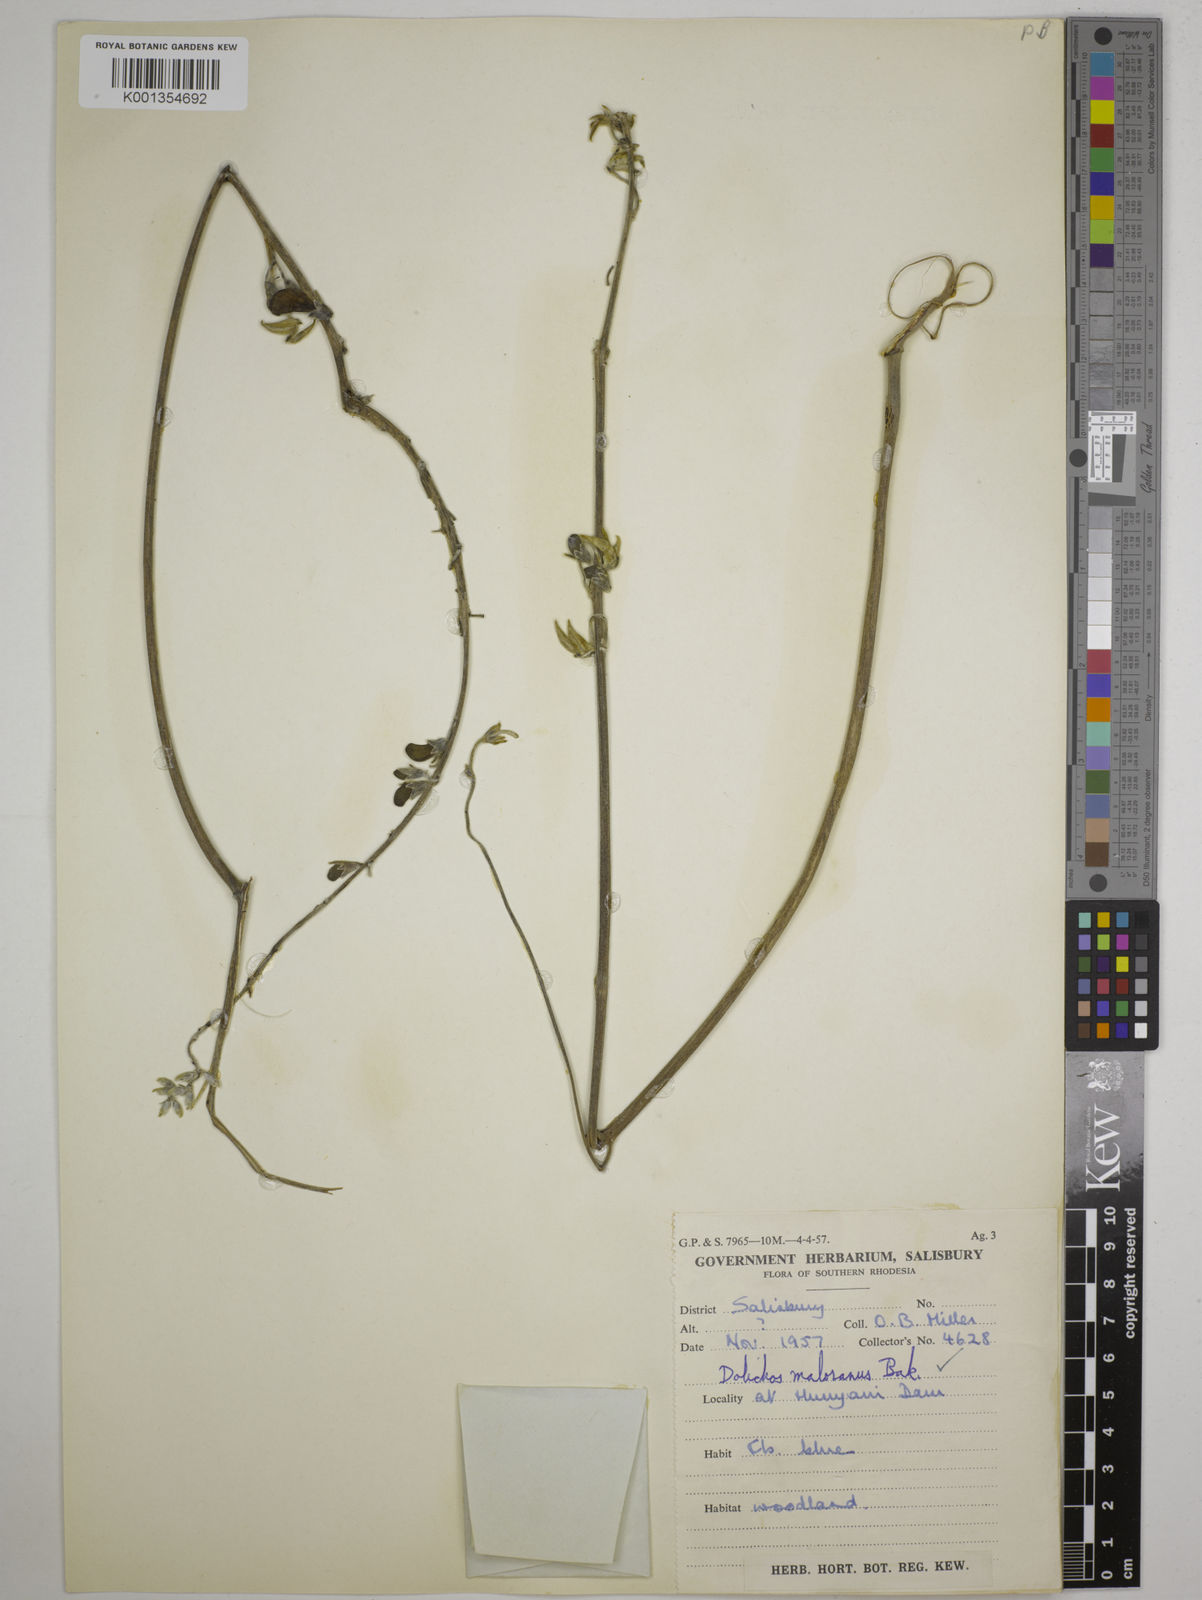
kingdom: Plantae
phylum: Tracheophyta
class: Magnoliopsida
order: Fabales
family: Fabaceae
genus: Dolichos
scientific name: Dolichos kilimandscharicus
